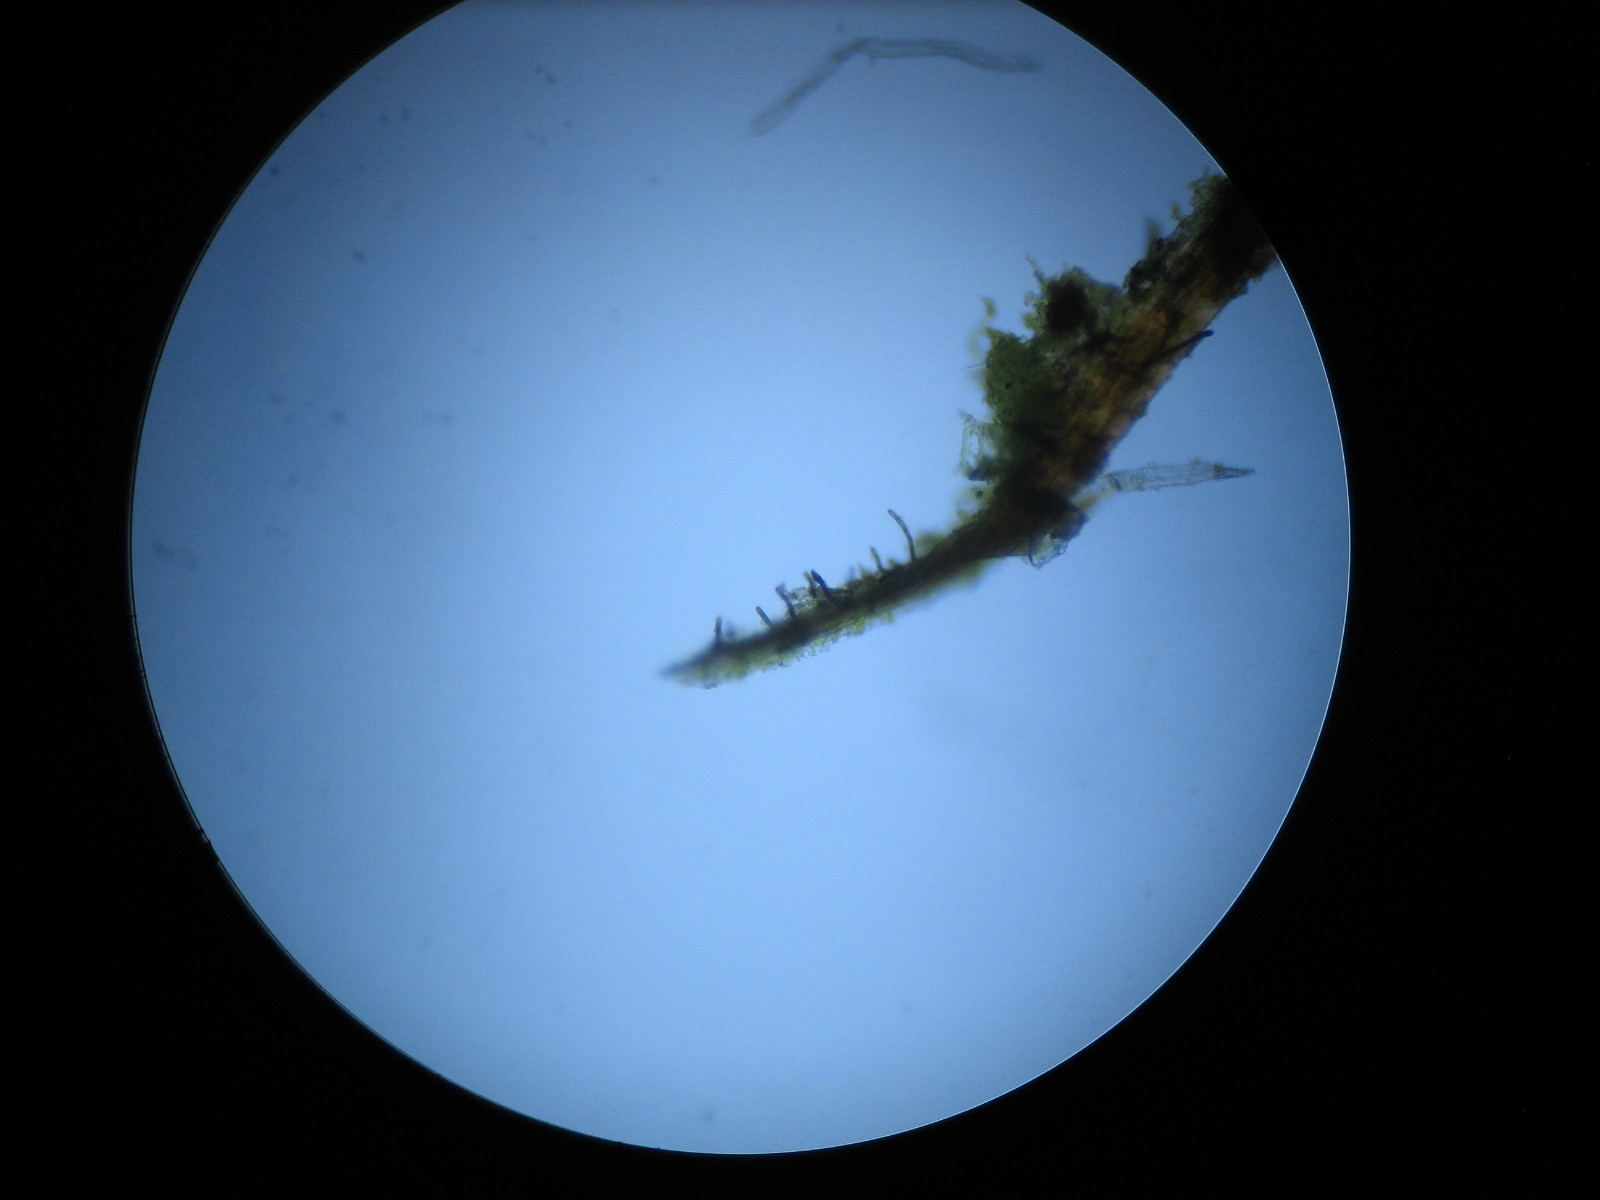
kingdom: Fungi
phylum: Ascomycota
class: Dothideomycetes
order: Mytilinidiales
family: Mytilinidiaceae
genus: Taeniolella
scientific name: Taeniolella
